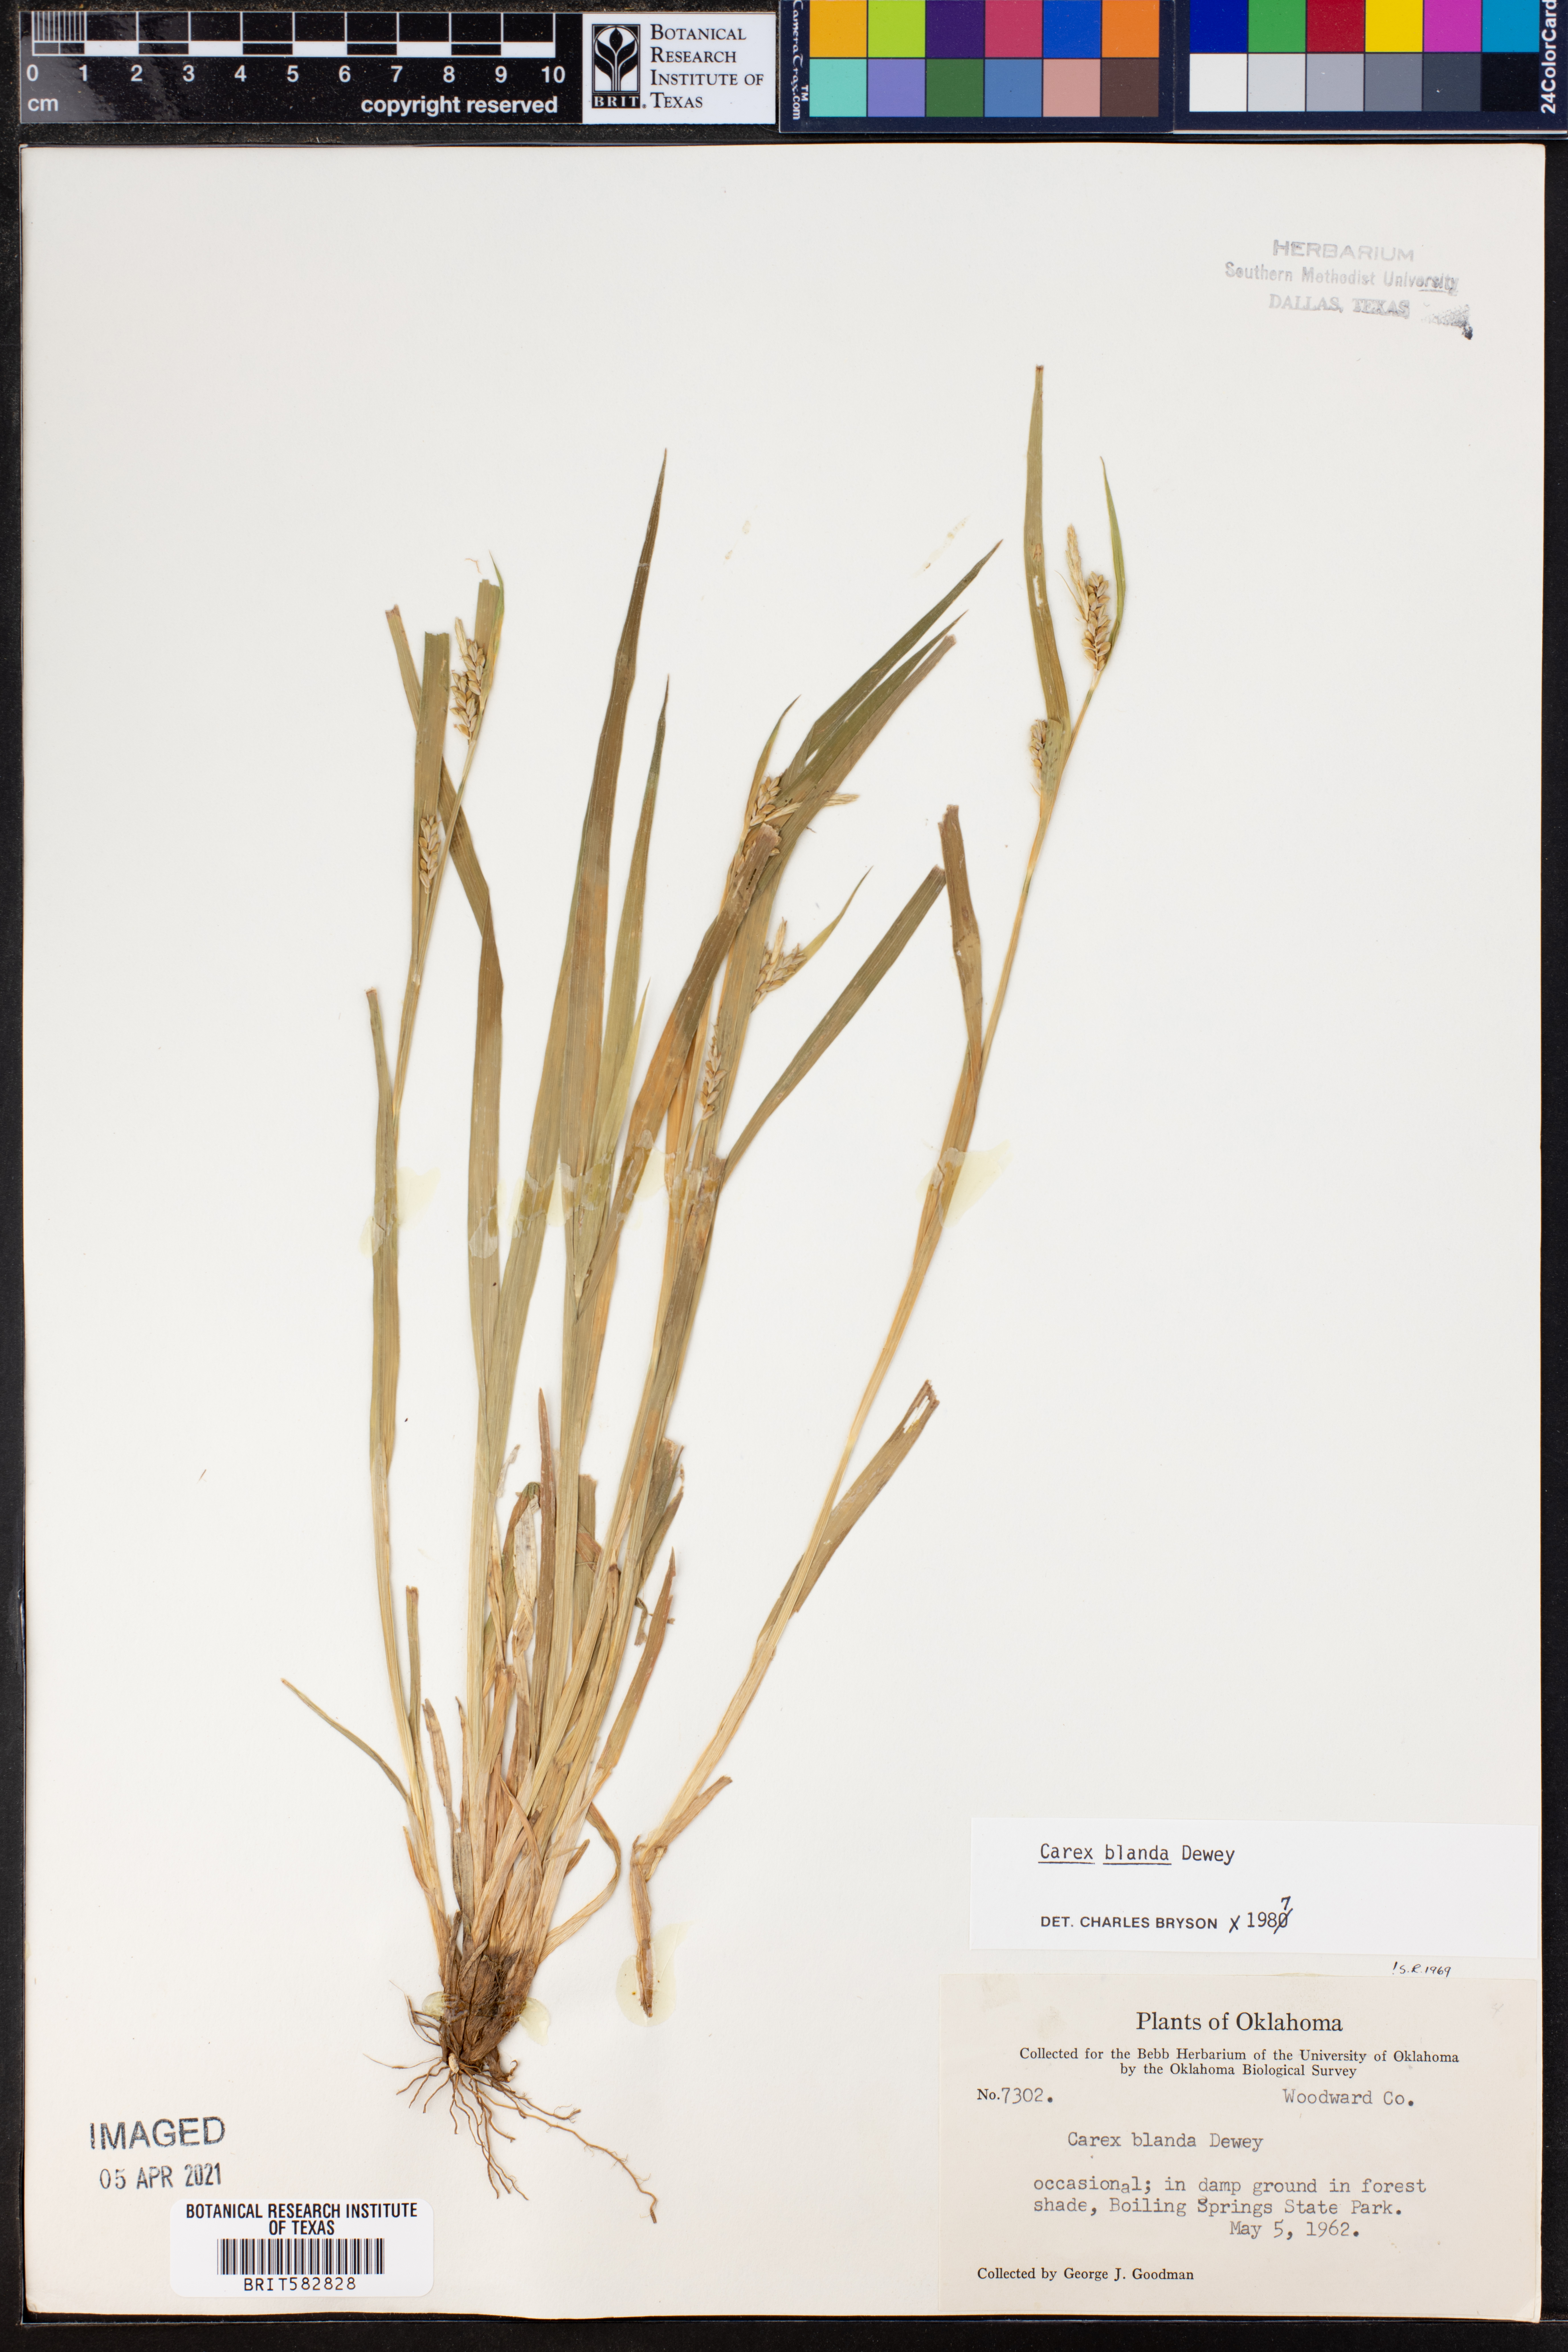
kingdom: Plantae
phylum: Tracheophyta
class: Liliopsida
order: Poales
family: Cyperaceae
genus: Carex
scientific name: Carex blanda
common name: Bland sedge
